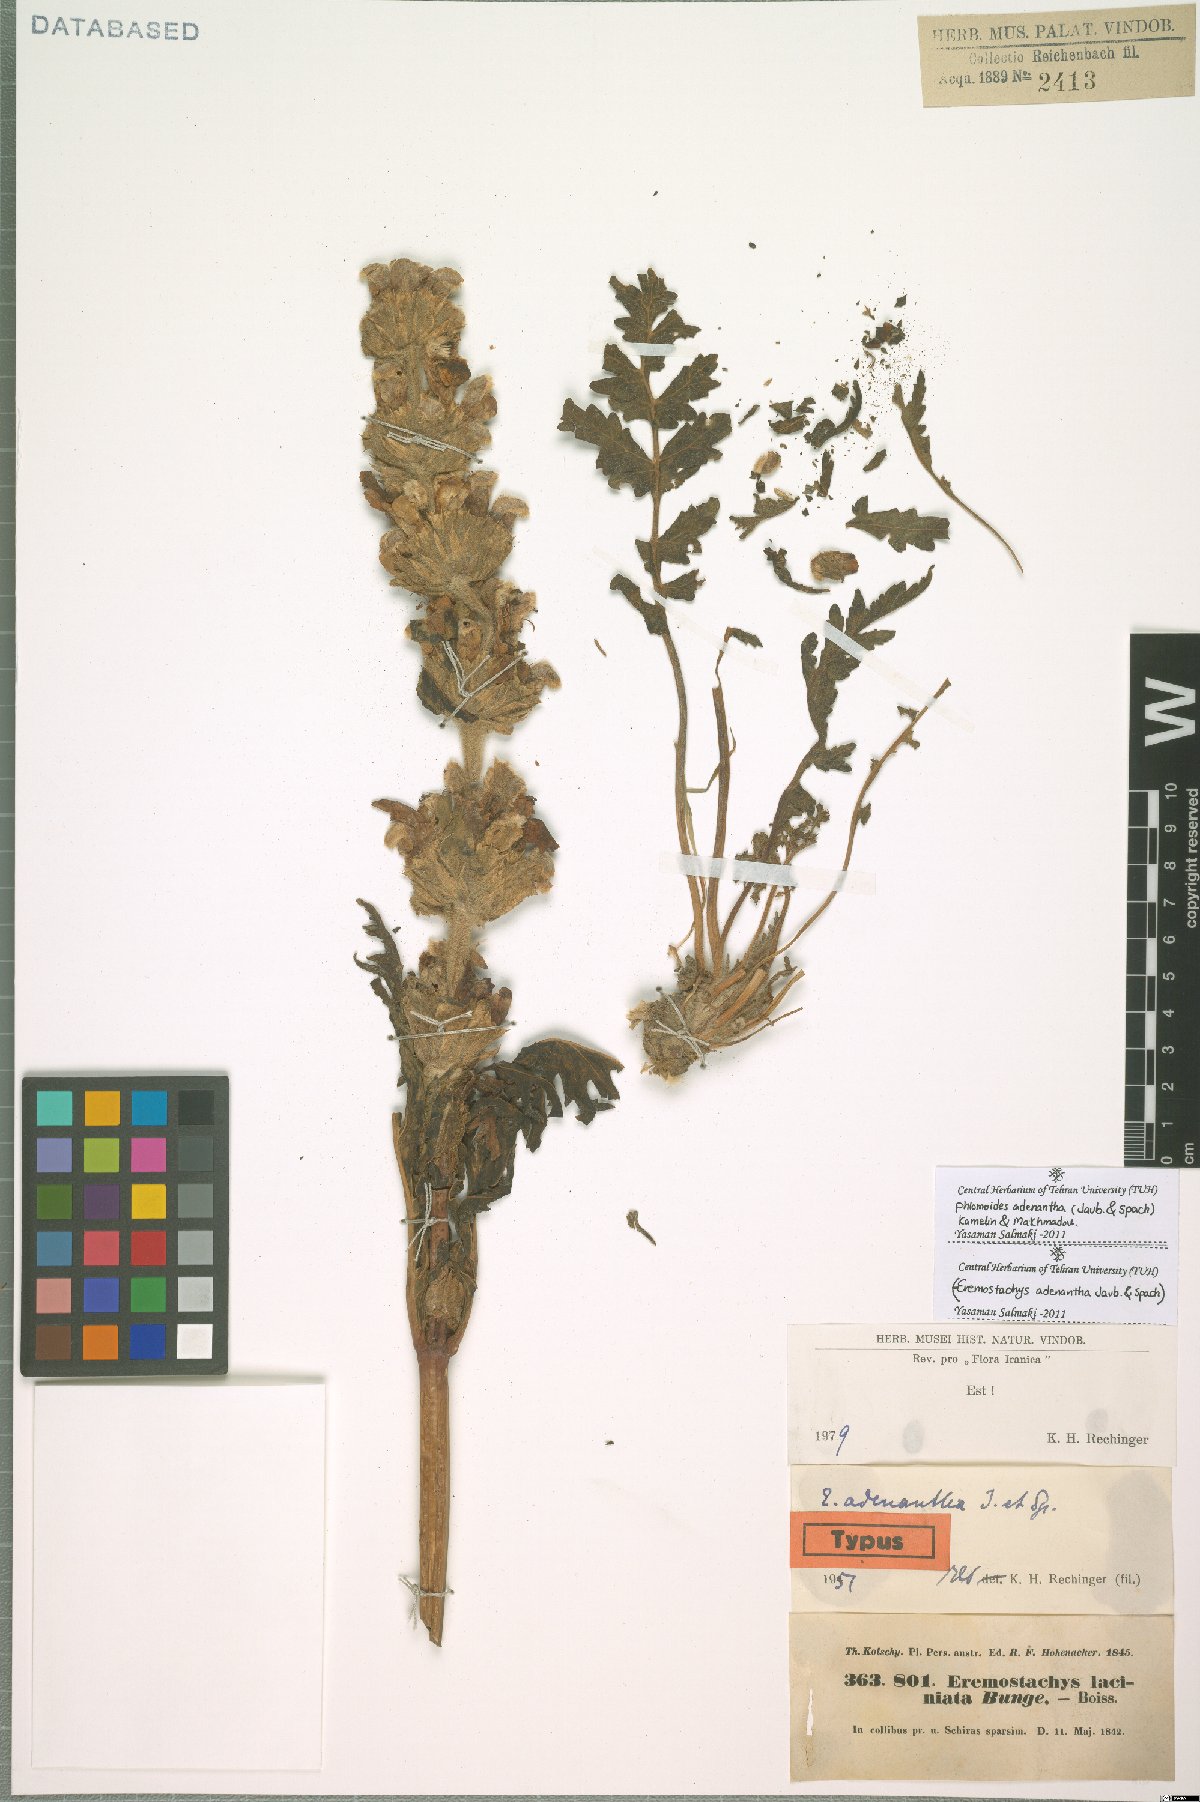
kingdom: Plantae
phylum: Tracheophyta
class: Magnoliopsida
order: Lamiales
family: Lamiaceae
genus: Phlomoides
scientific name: Phlomoides adenantha
